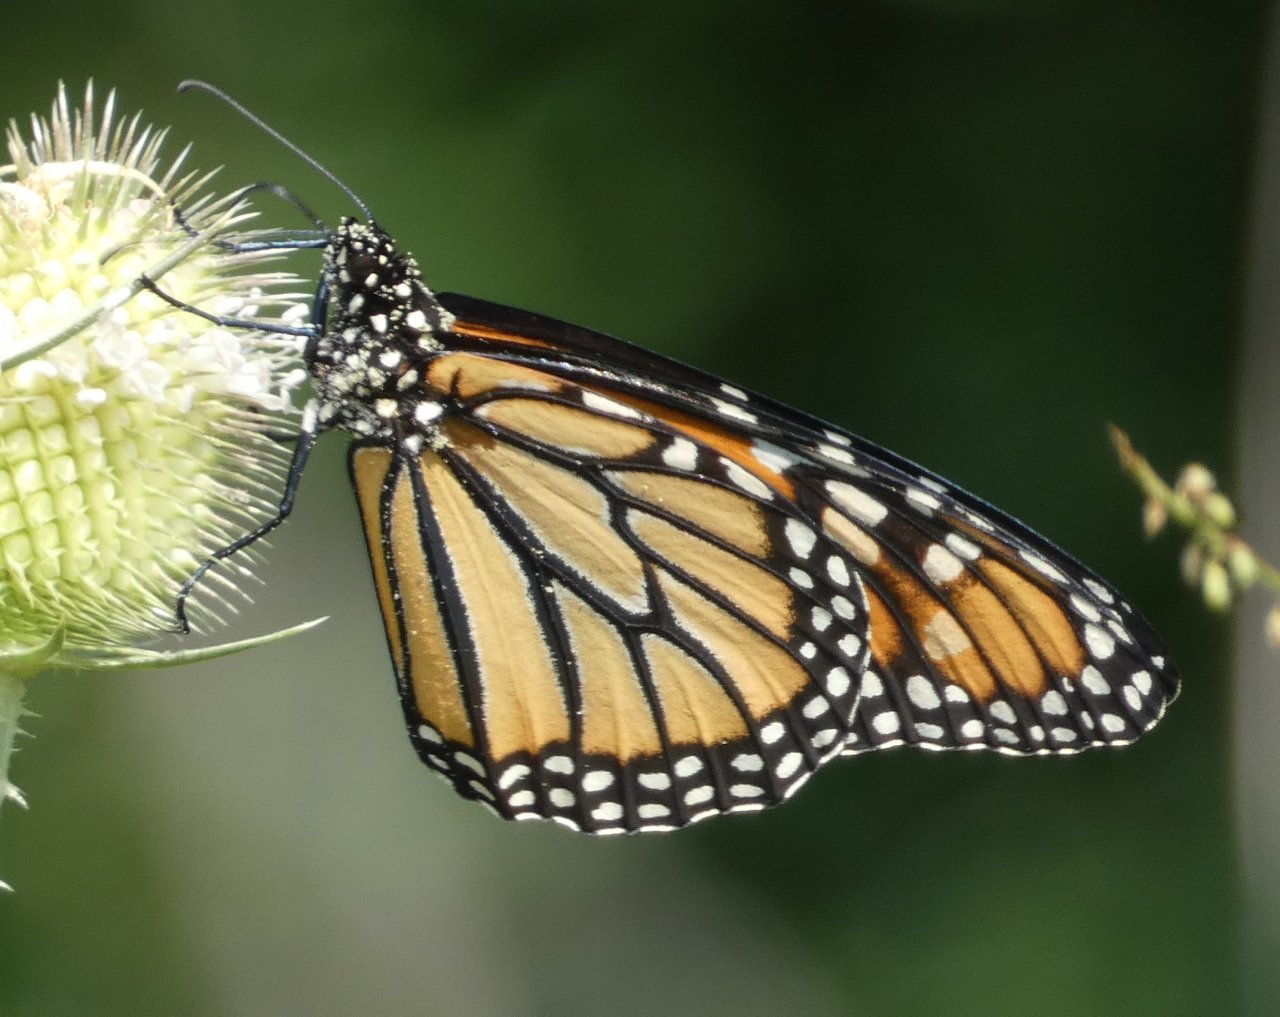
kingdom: Animalia
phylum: Arthropoda
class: Insecta
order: Lepidoptera
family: Nymphalidae
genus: Danaus
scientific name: Danaus plexippus
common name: Monarch
